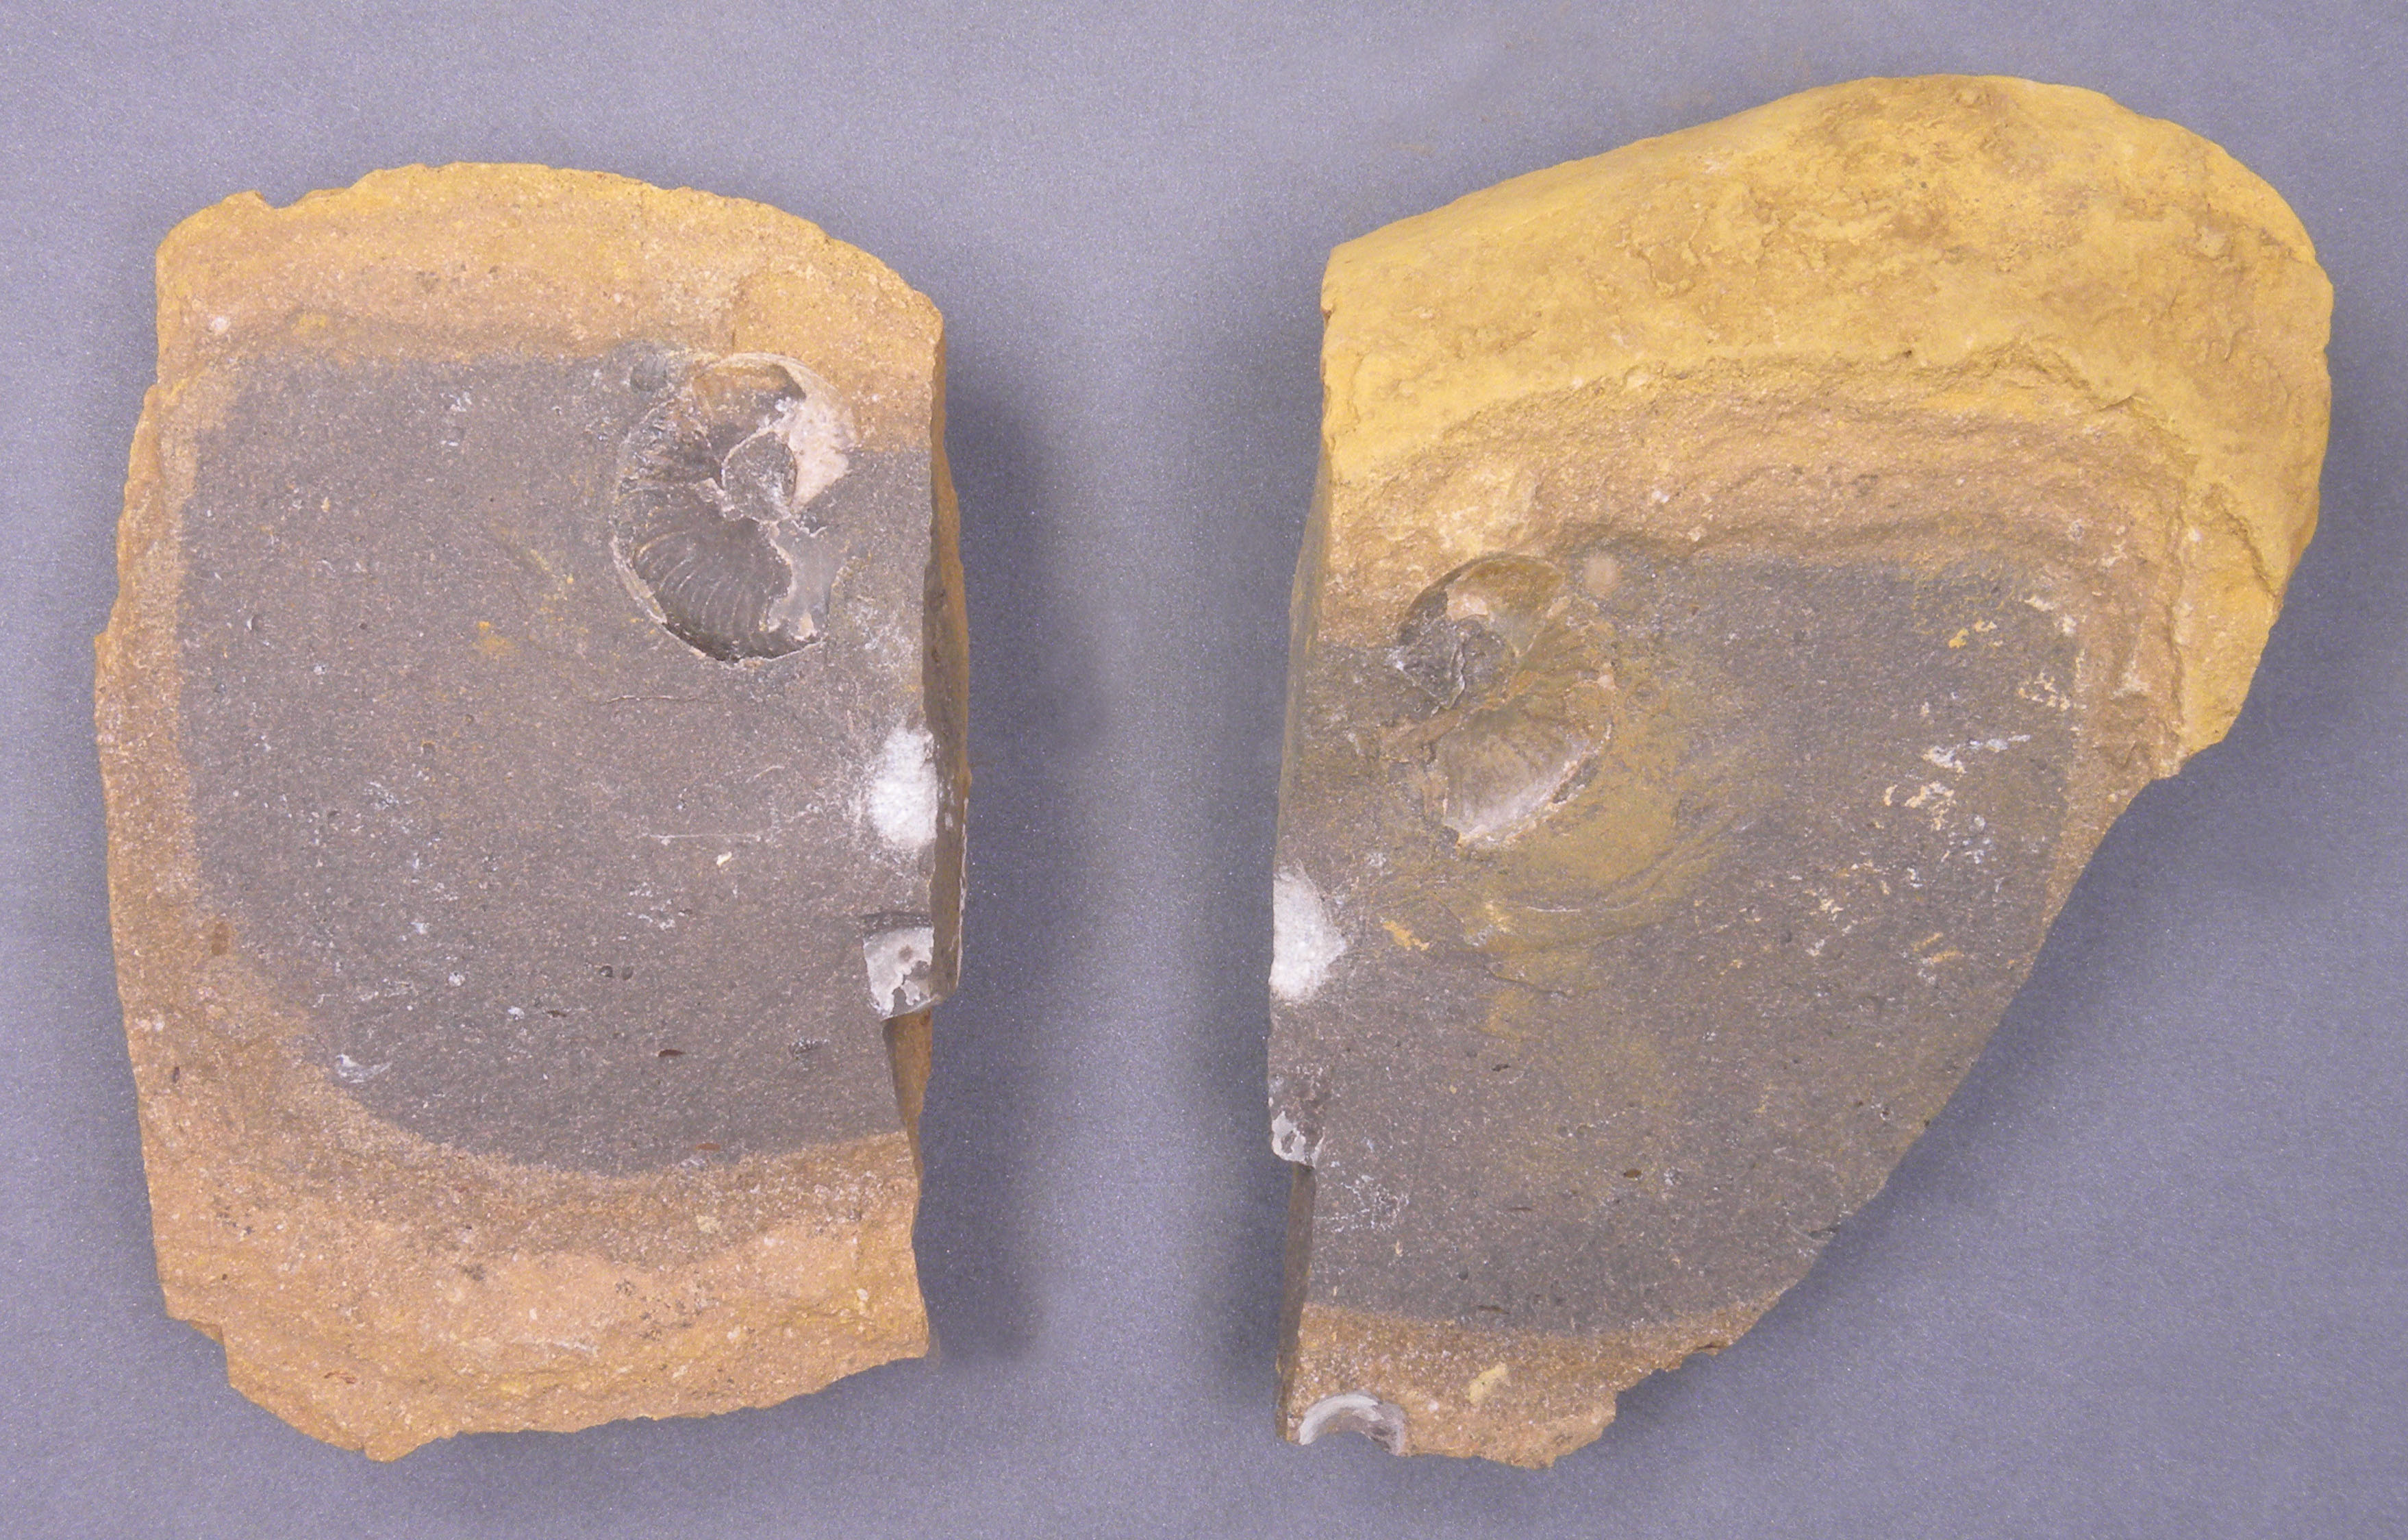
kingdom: Animalia
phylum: Mollusca
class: Cephalopoda
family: Hildoceratidae
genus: Harpoceras
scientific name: Harpoceras
